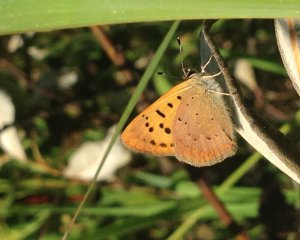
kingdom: Animalia
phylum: Arthropoda
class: Insecta
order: Lepidoptera
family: Lycaenidae
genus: Epidemia
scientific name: Epidemia dorcas
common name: Dorcas Copper
